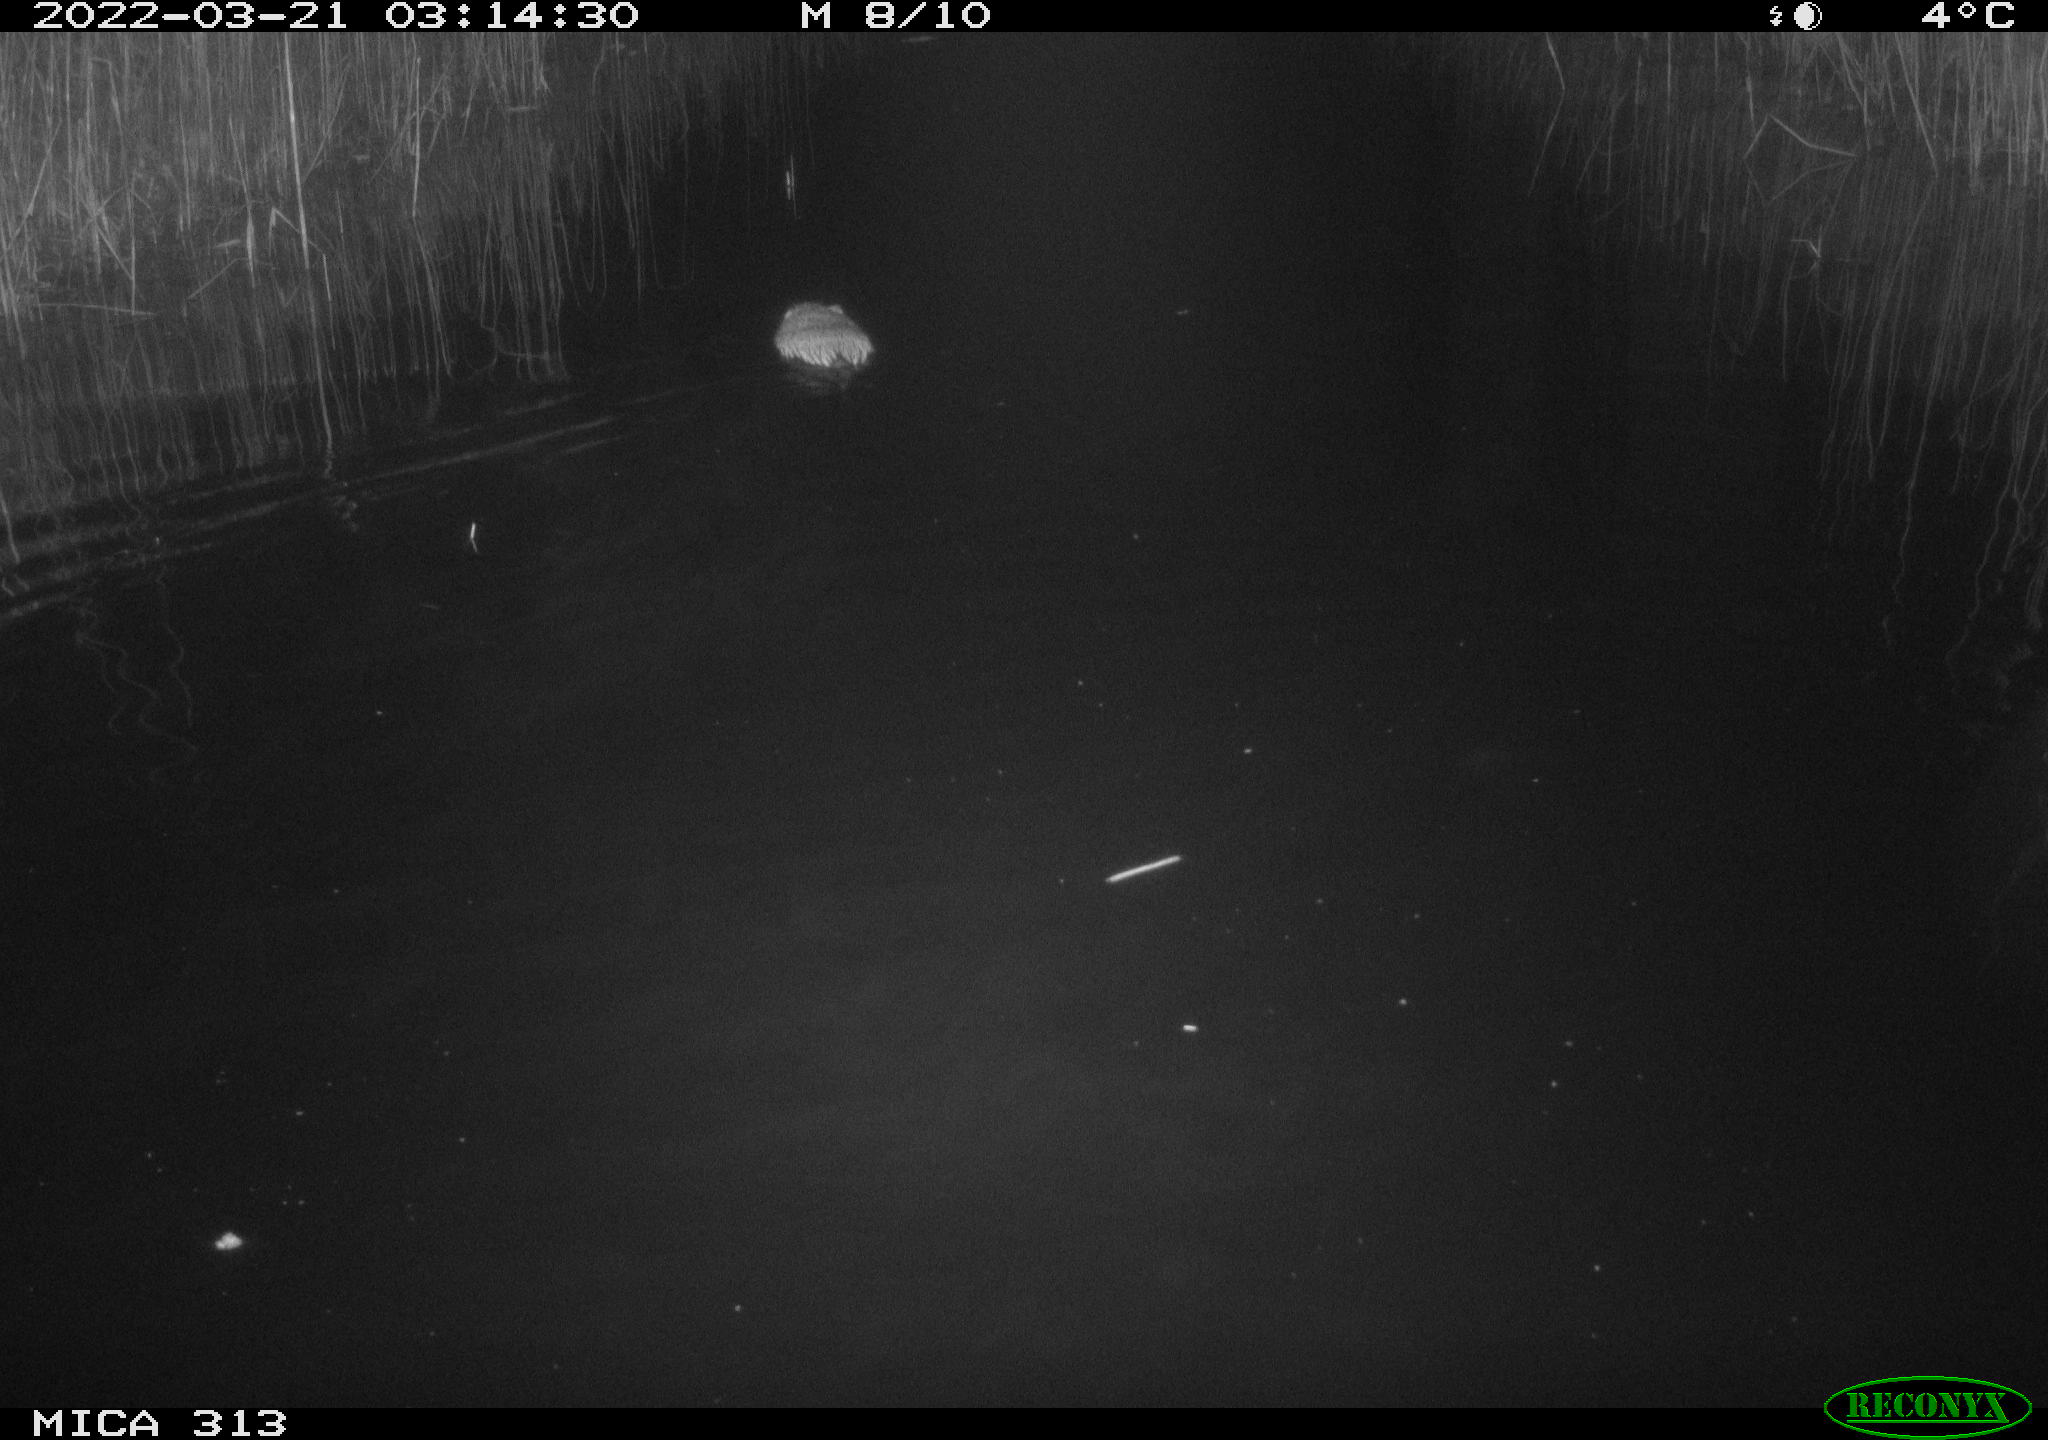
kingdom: Animalia
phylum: Chordata
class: Mammalia
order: Rodentia
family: Cricetidae
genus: Ondatra
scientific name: Ondatra zibethicus
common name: Muskrat
